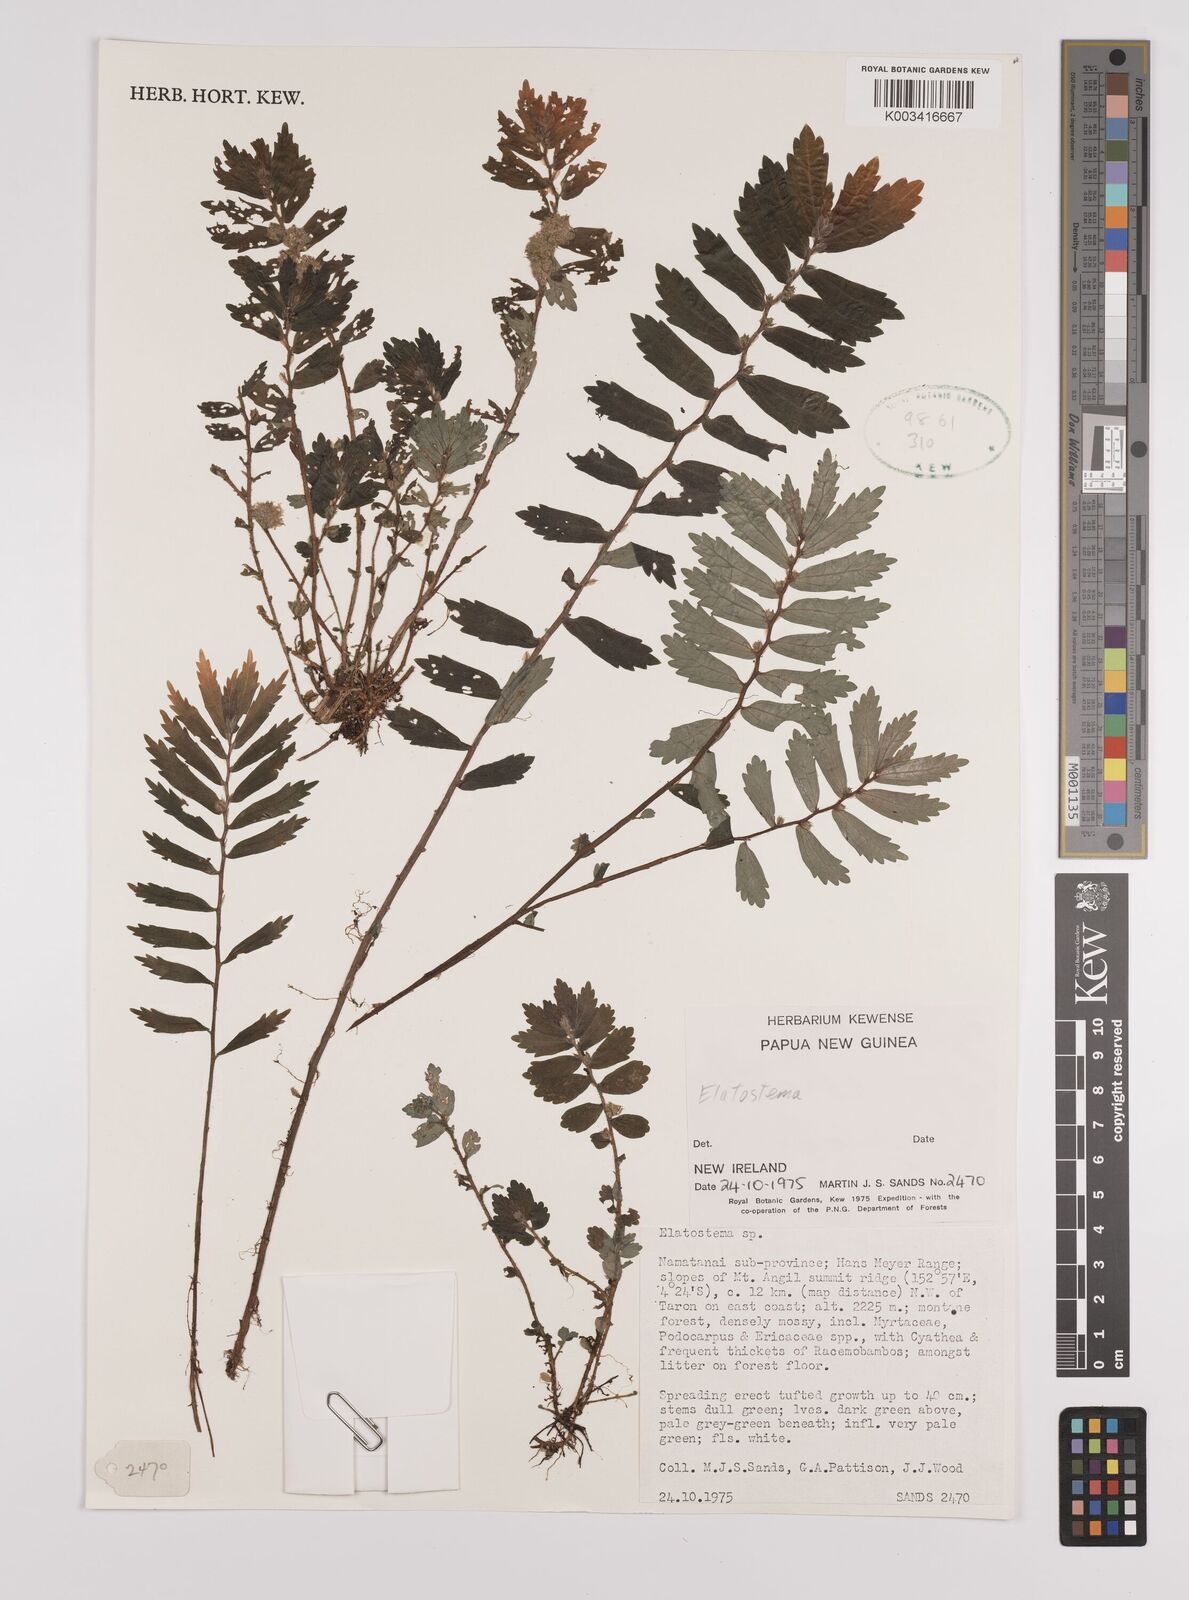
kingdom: Plantae
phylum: Tracheophyta
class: Magnoliopsida
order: Rosales
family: Urticaceae
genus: Elatostema
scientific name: Elatostema
